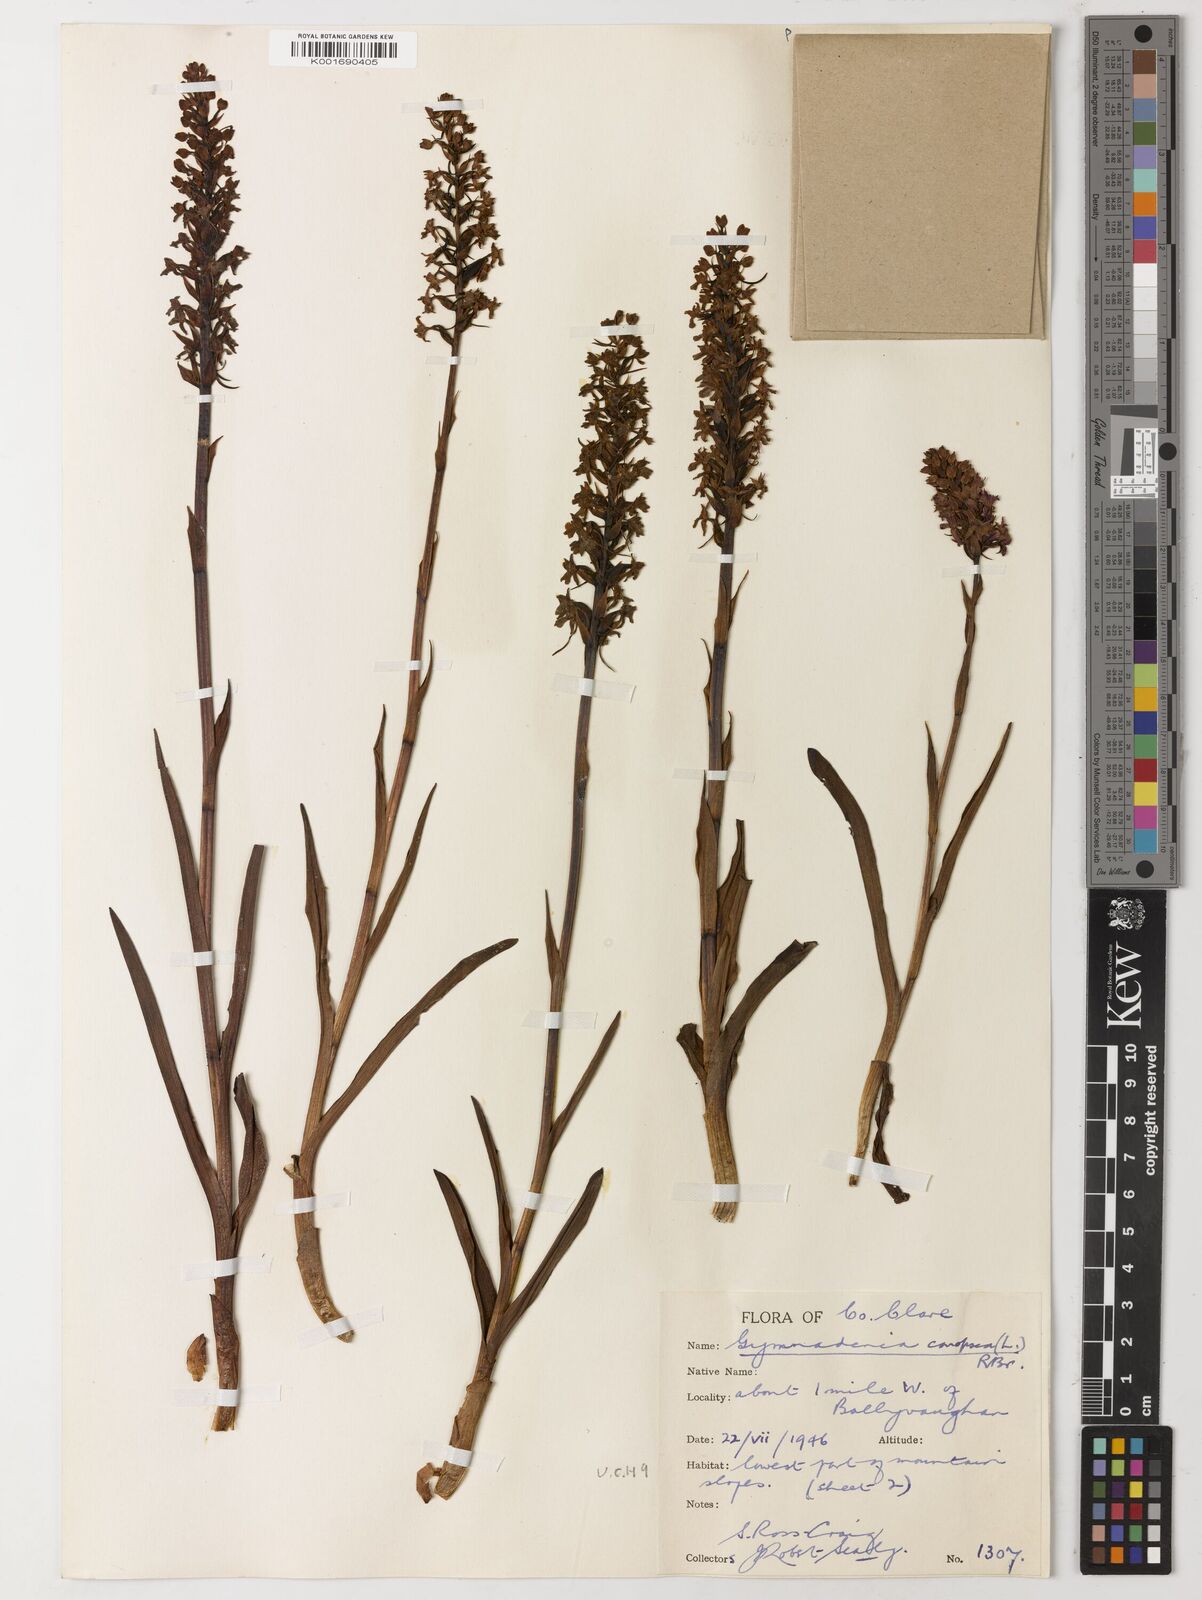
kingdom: Plantae
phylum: Tracheophyta
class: Magnoliopsida
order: Laurales
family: Lauraceae
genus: Umbellularia
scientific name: Umbellularia californica
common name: California bay
